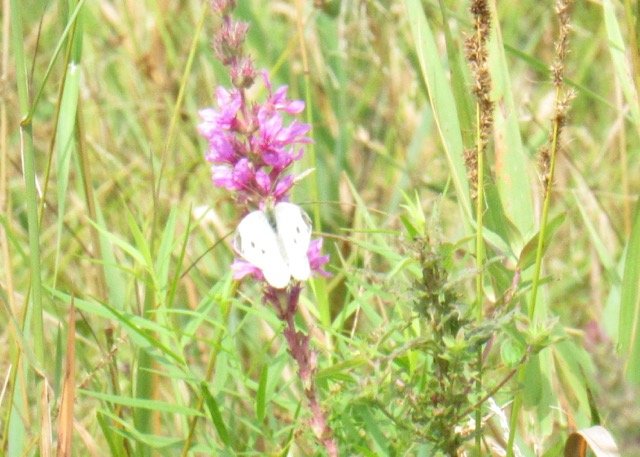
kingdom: Animalia
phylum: Arthropoda
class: Insecta
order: Lepidoptera
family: Pieridae
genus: Pieris
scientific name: Pieris rapae
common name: Cabbage White
